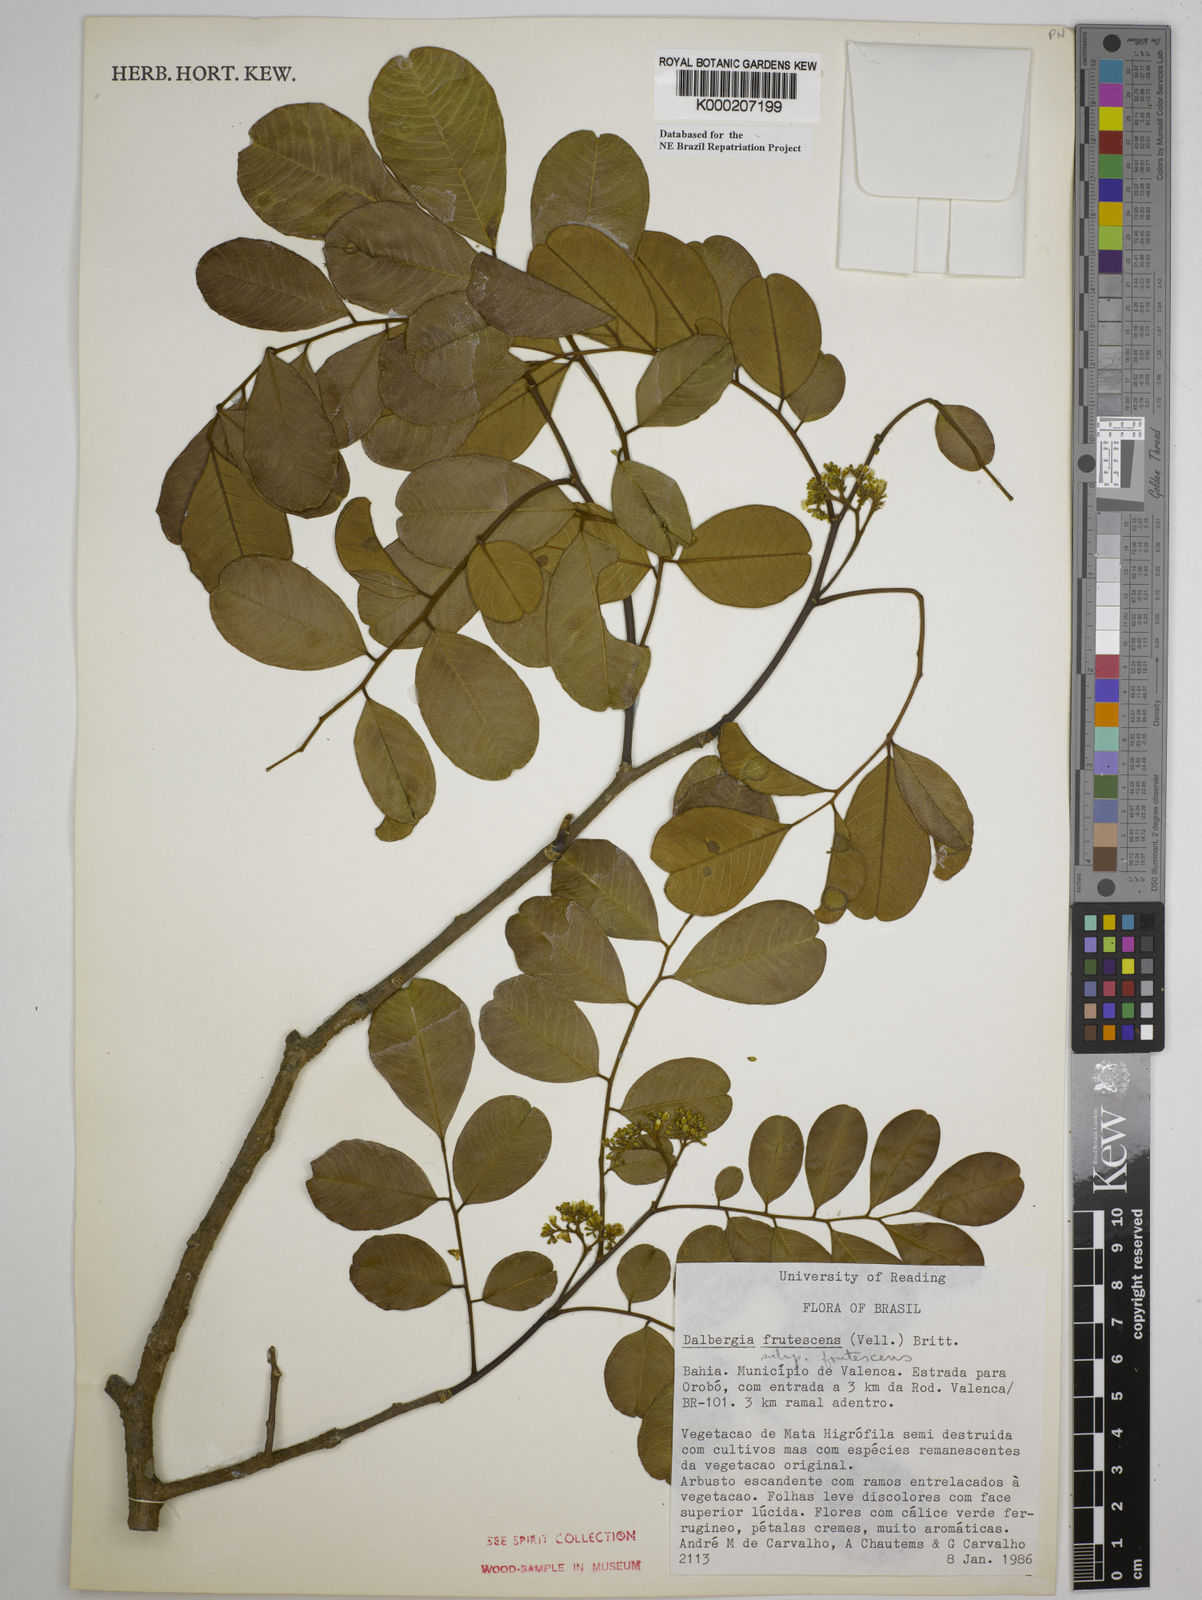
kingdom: Plantae
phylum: Tracheophyta
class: Magnoliopsida
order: Fabales
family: Fabaceae
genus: Dalbergia
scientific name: Dalbergia frutescens
